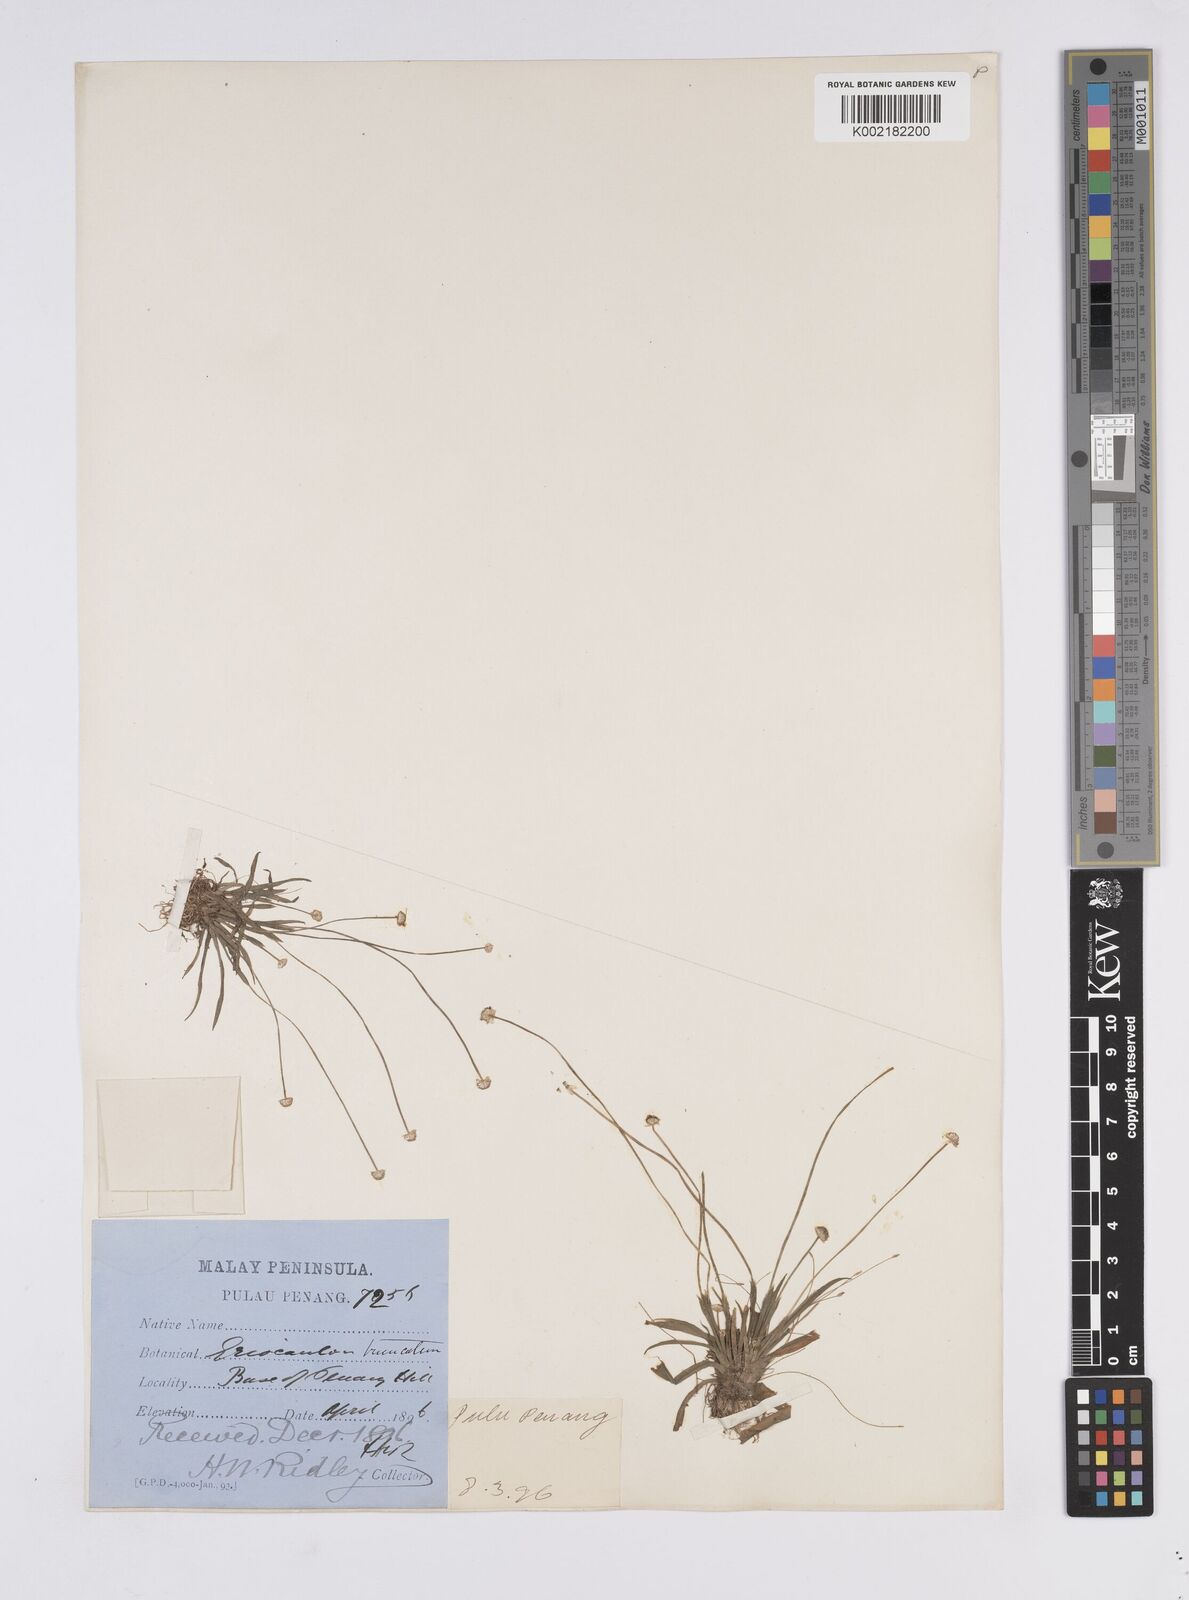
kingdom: Plantae
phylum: Tracheophyta
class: Liliopsida
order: Poales
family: Eriocaulaceae
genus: Eriocaulon
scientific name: Eriocaulon truncatum
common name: Short pipe-wort
